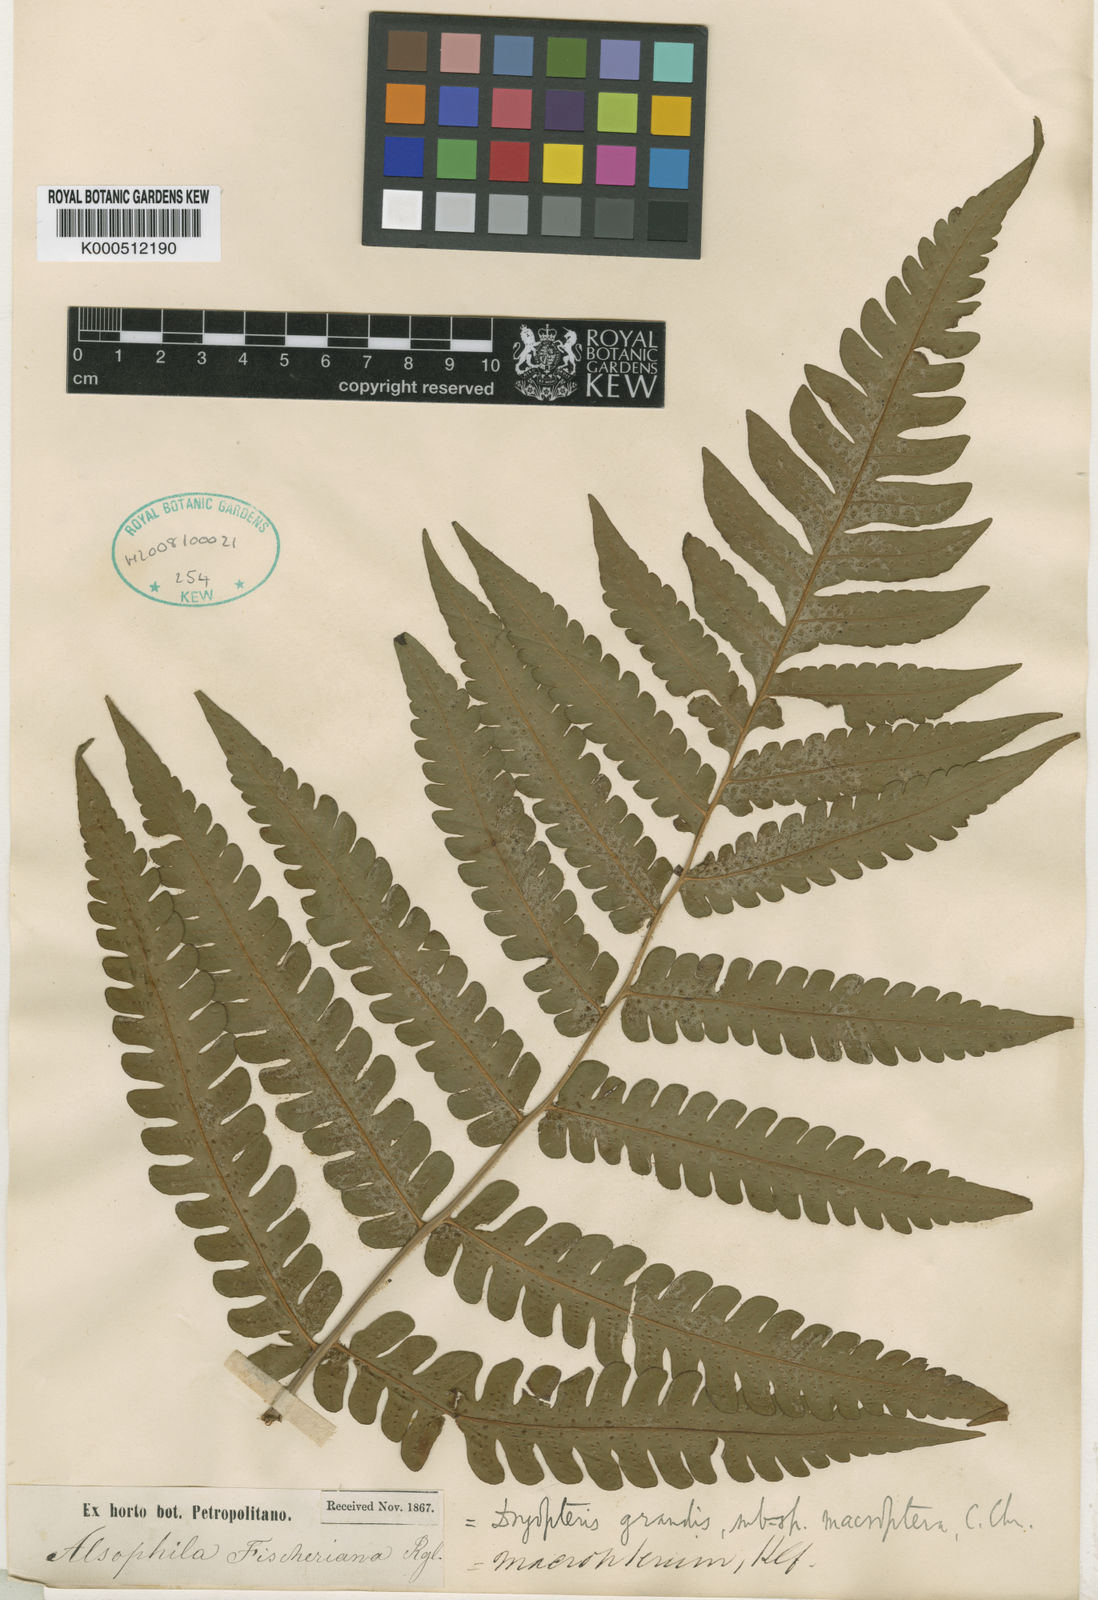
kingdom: Plantae
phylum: Tracheophyta
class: Polypodiopsida
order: Polypodiales
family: Dryopteridaceae
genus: Megalastrum
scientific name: Megalastrum grande
